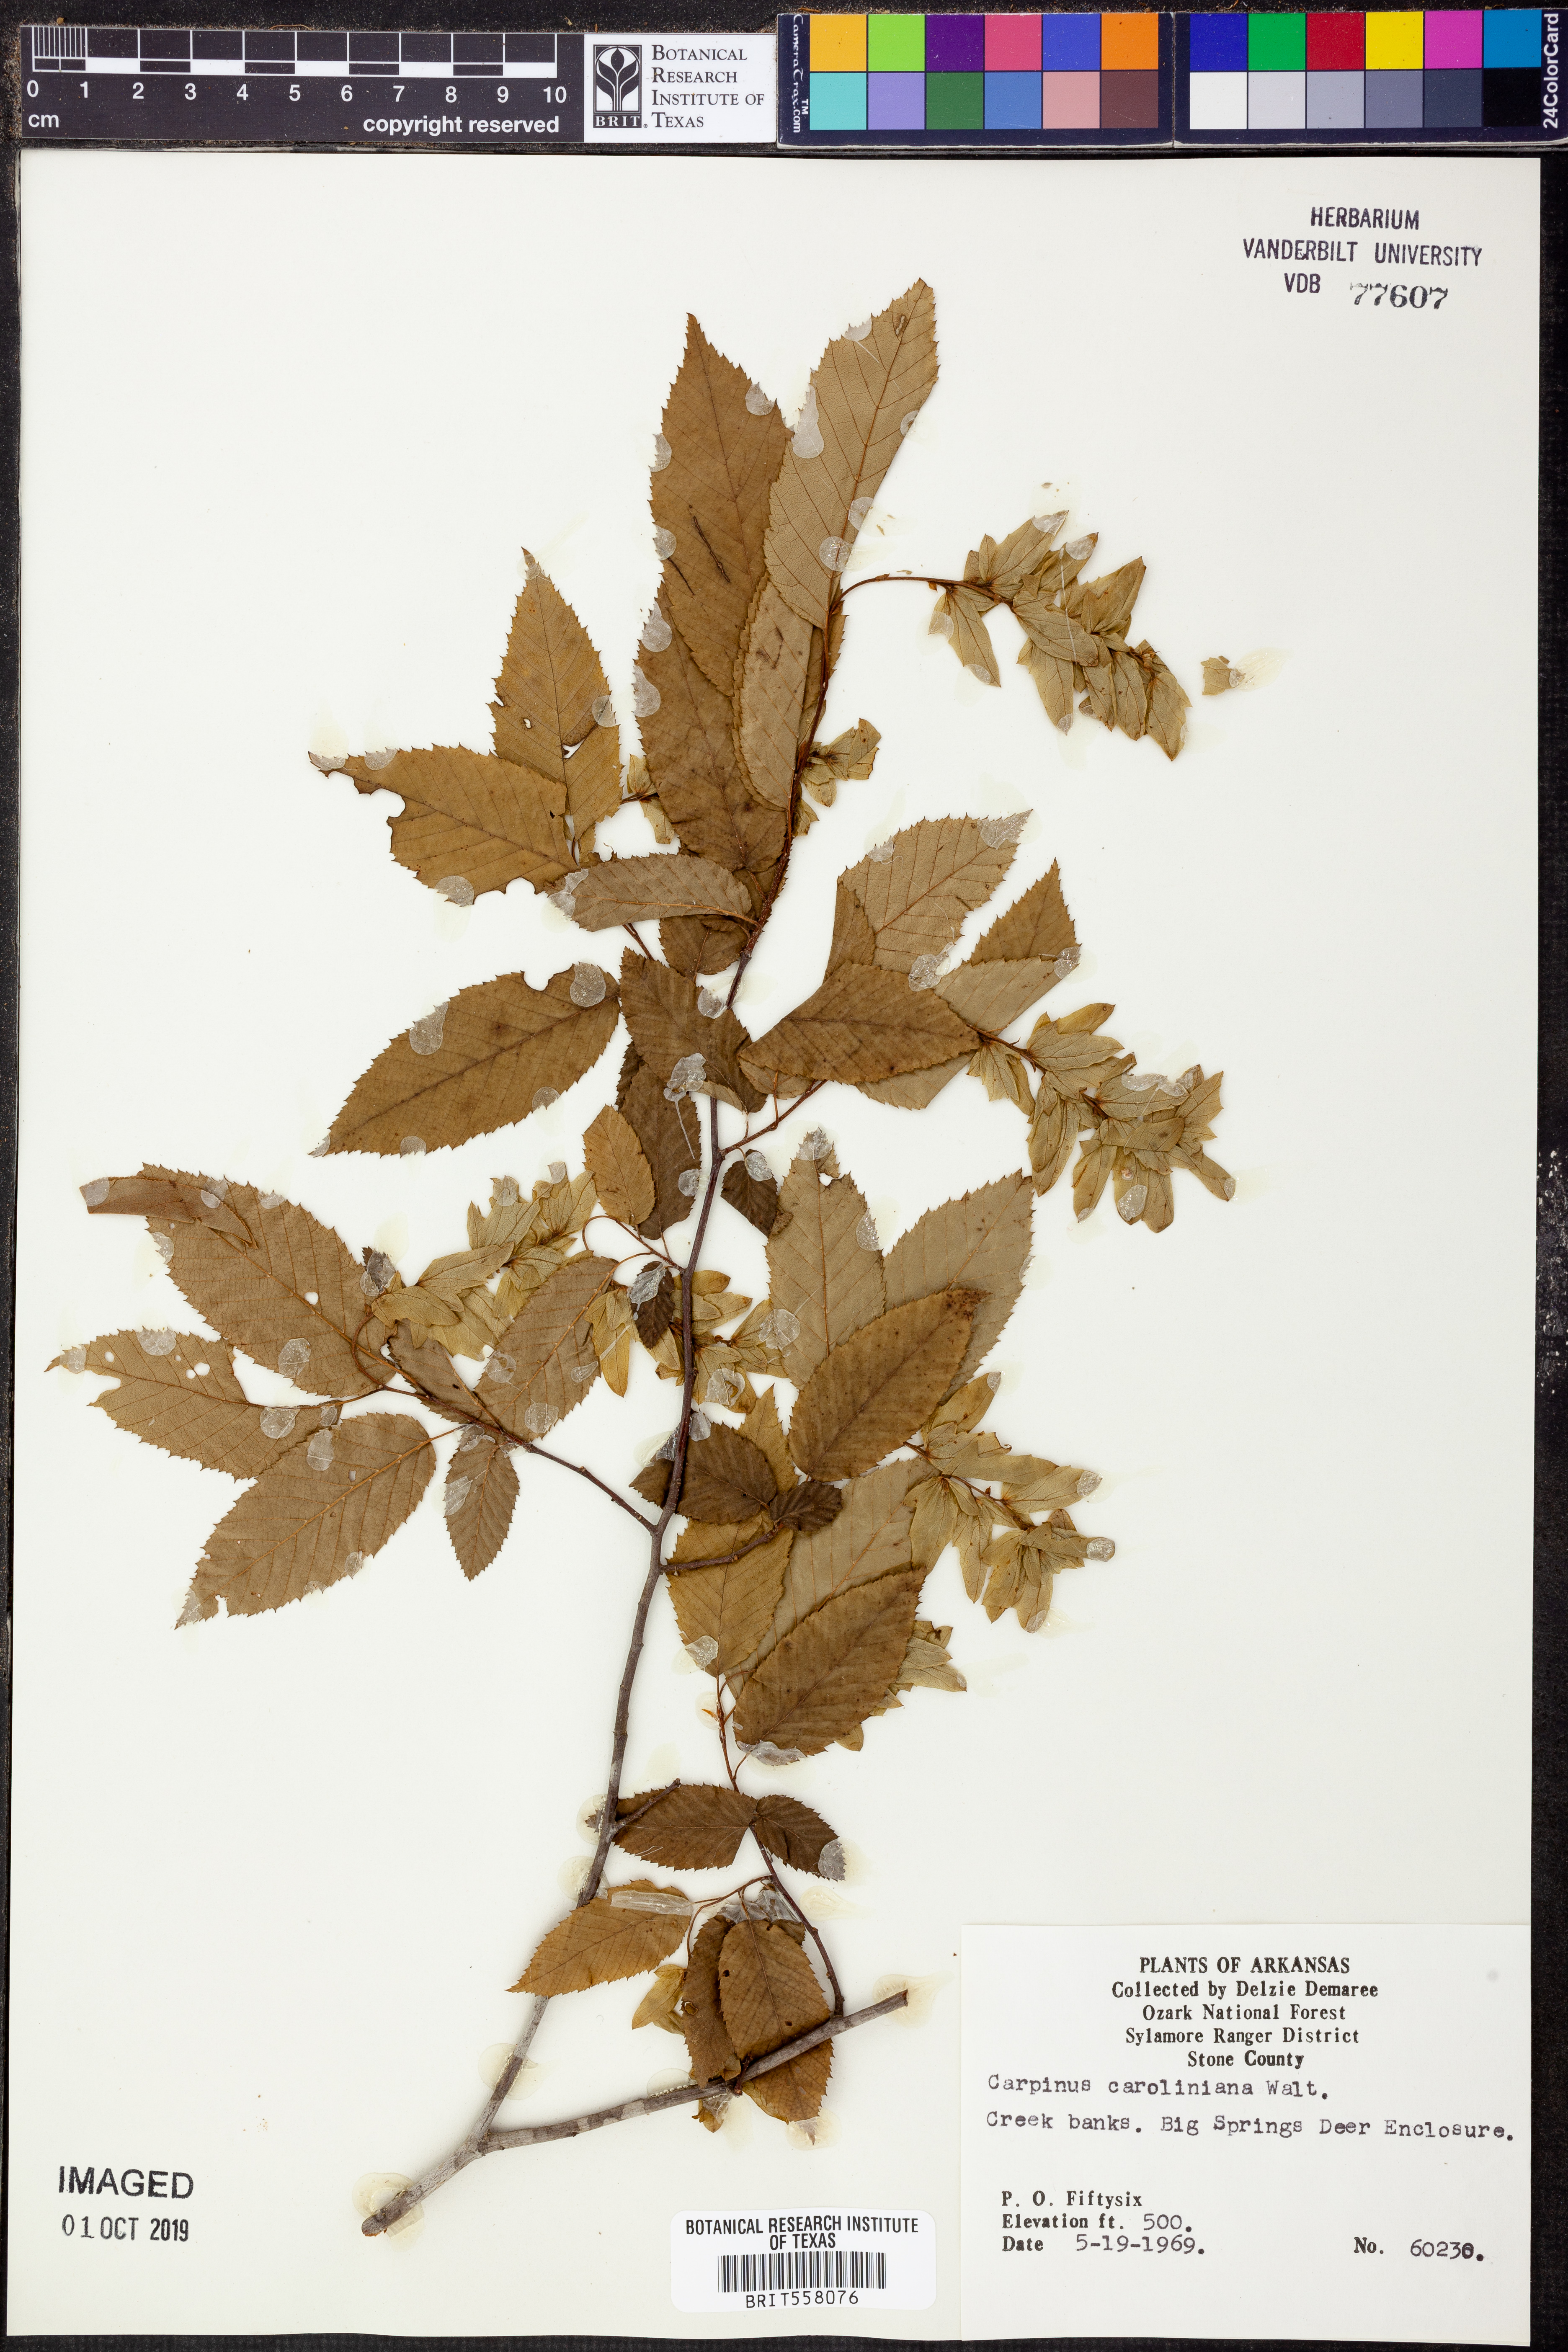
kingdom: Plantae
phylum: Tracheophyta
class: Magnoliopsida
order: Fagales
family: Betulaceae
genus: Carpinus
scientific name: Carpinus caroliniana
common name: American hornbeam
